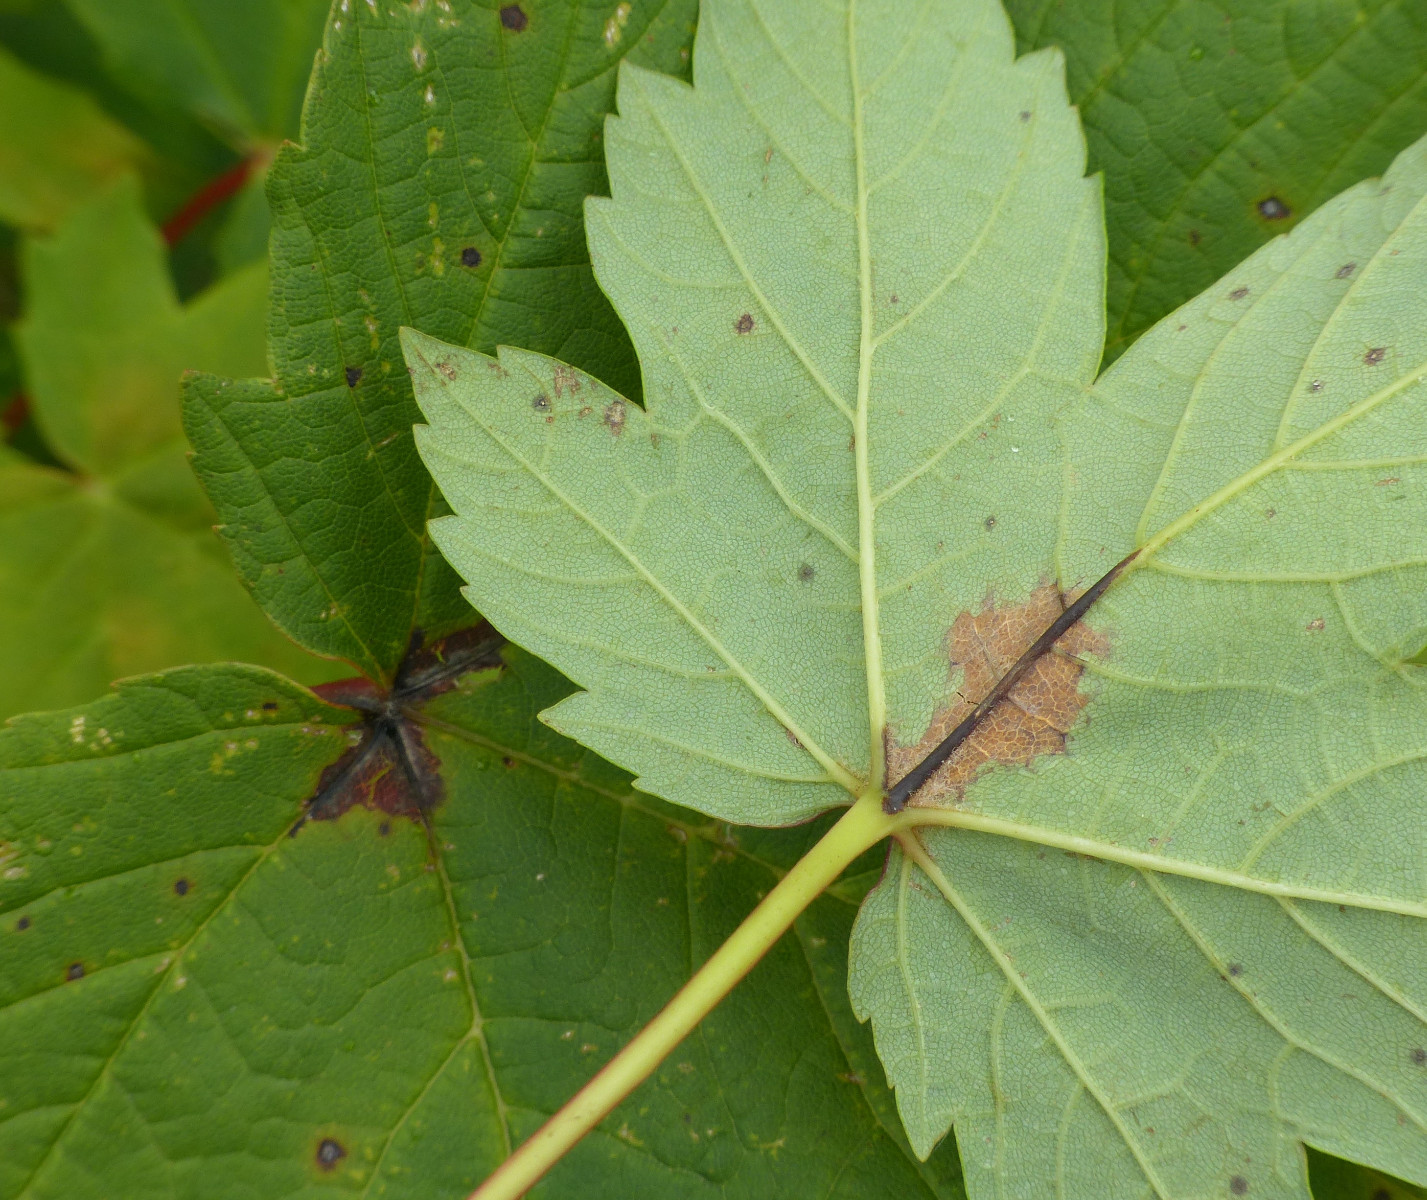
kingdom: Fungi
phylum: Ascomycota
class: Sordariomycetes
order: Diaporthales
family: Gnomoniaceae
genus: Pleuroceras
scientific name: Pleuroceras pseudoplatani
